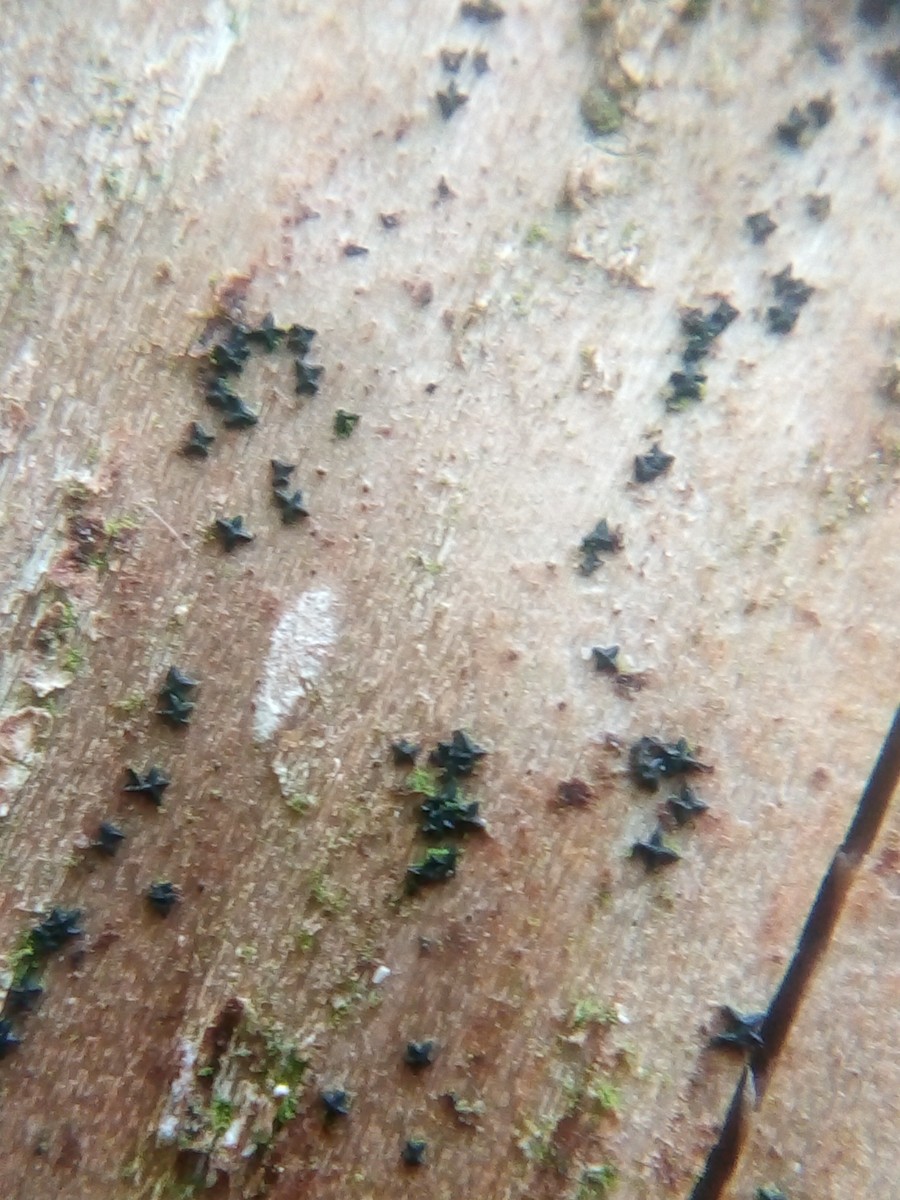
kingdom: Fungi
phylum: Ascomycota
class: Dothideomycetes
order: Mytilinidiales
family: Mytilinidiaceae
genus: Actidium
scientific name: Actidium hysterioides
